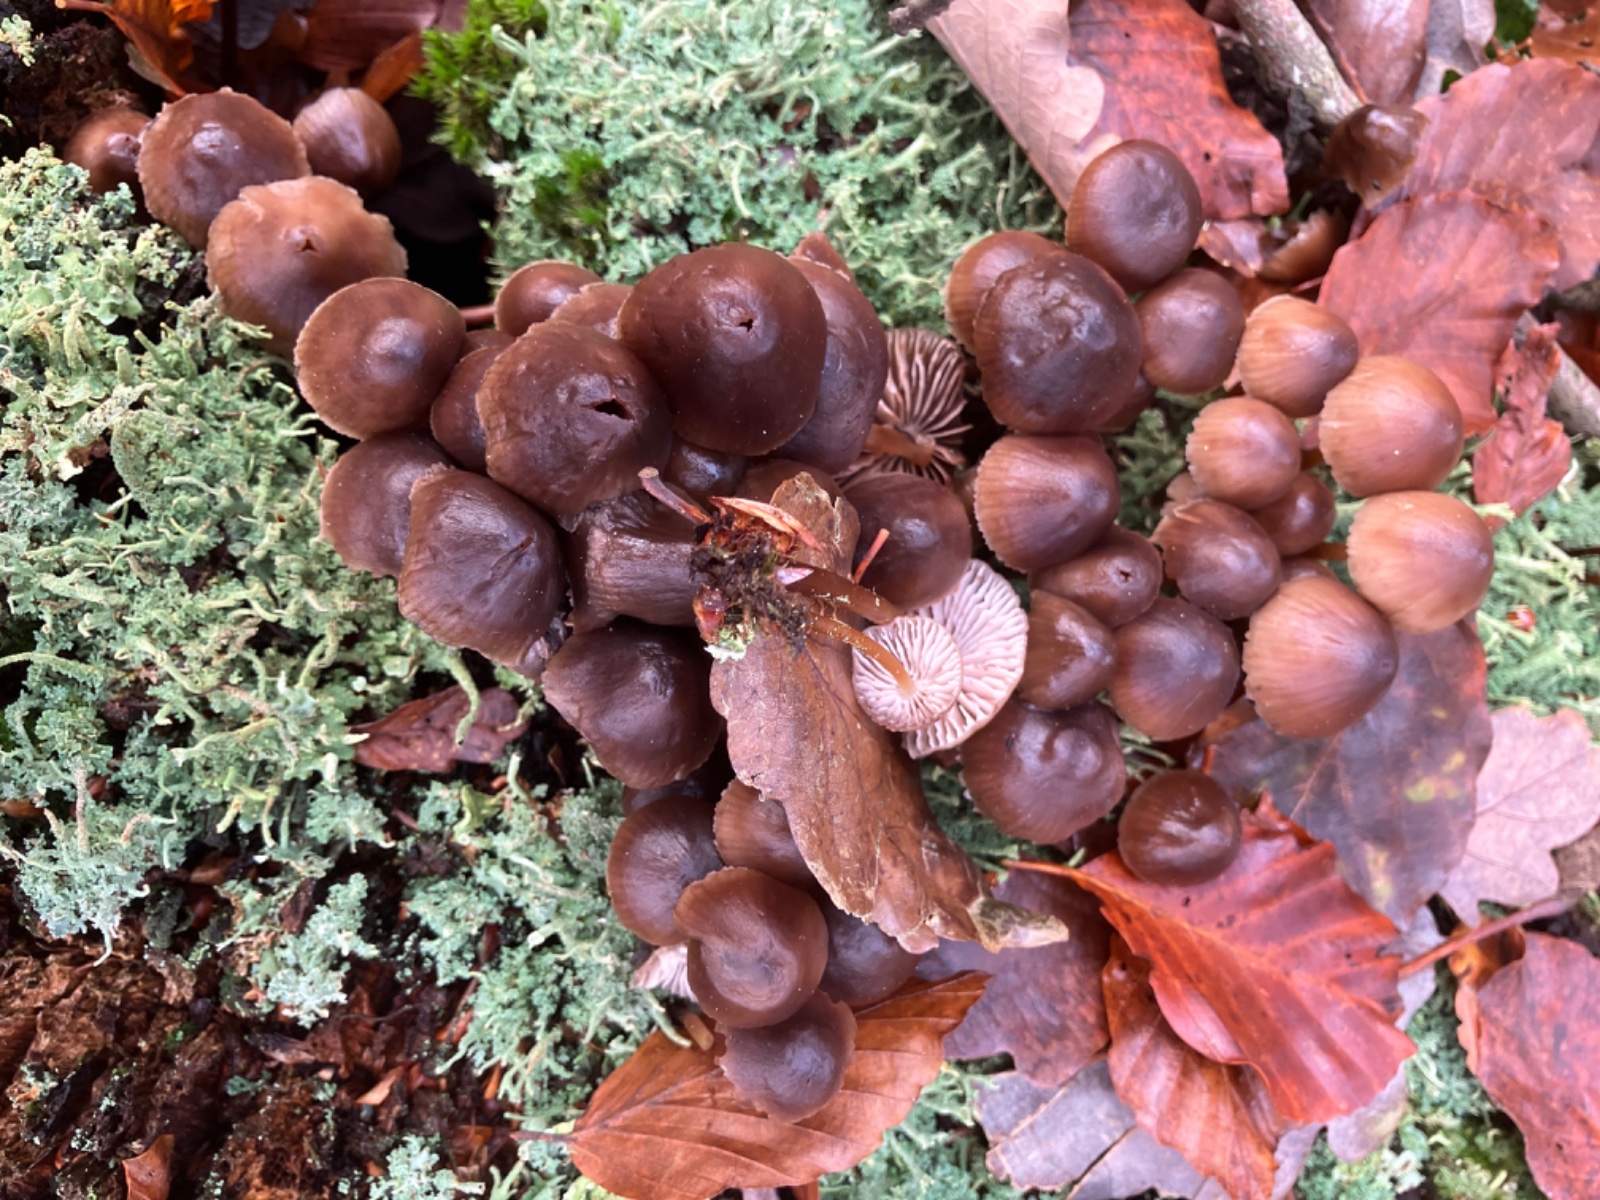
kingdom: Fungi
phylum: Basidiomycota
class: Agaricomycetes
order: Agaricales
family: Mycenaceae
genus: Mycena
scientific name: Mycena
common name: huesvamp
